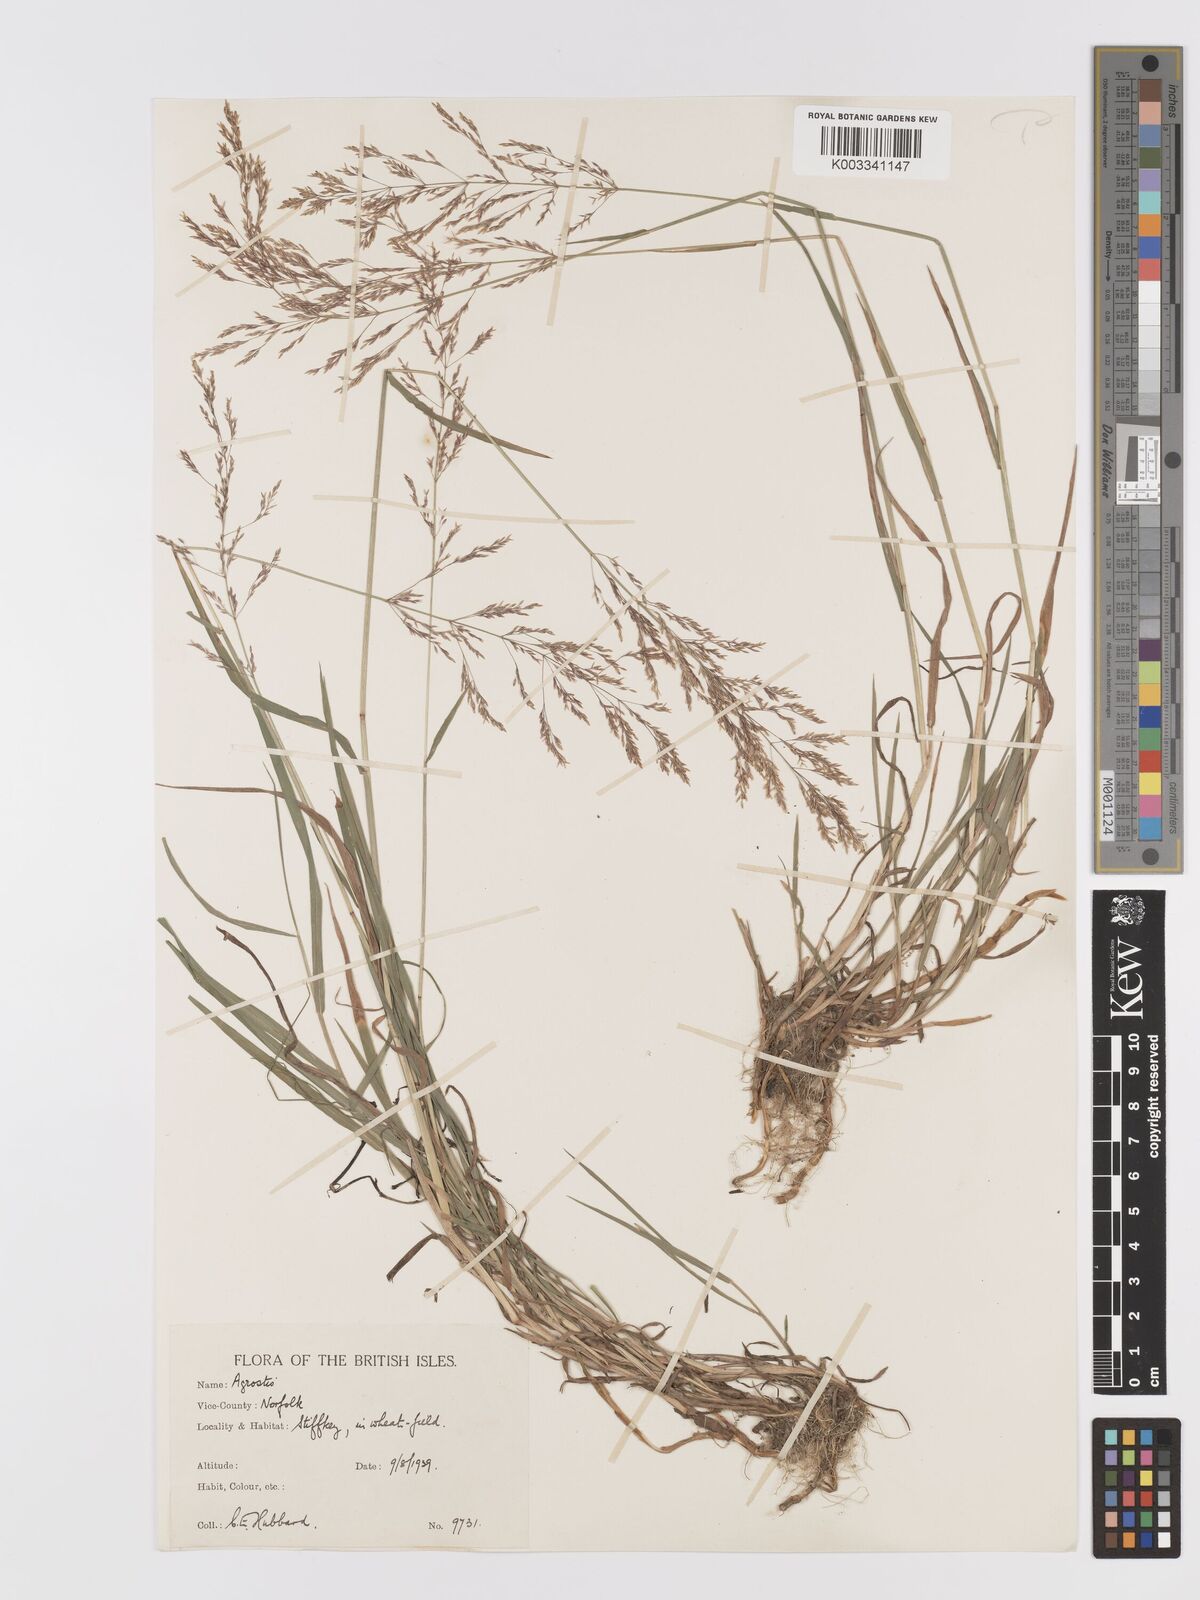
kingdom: Plantae
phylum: Tracheophyta
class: Liliopsida
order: Poales
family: Poaceae
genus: Agrostis
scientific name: Agrostis gigantea
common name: Black bent
